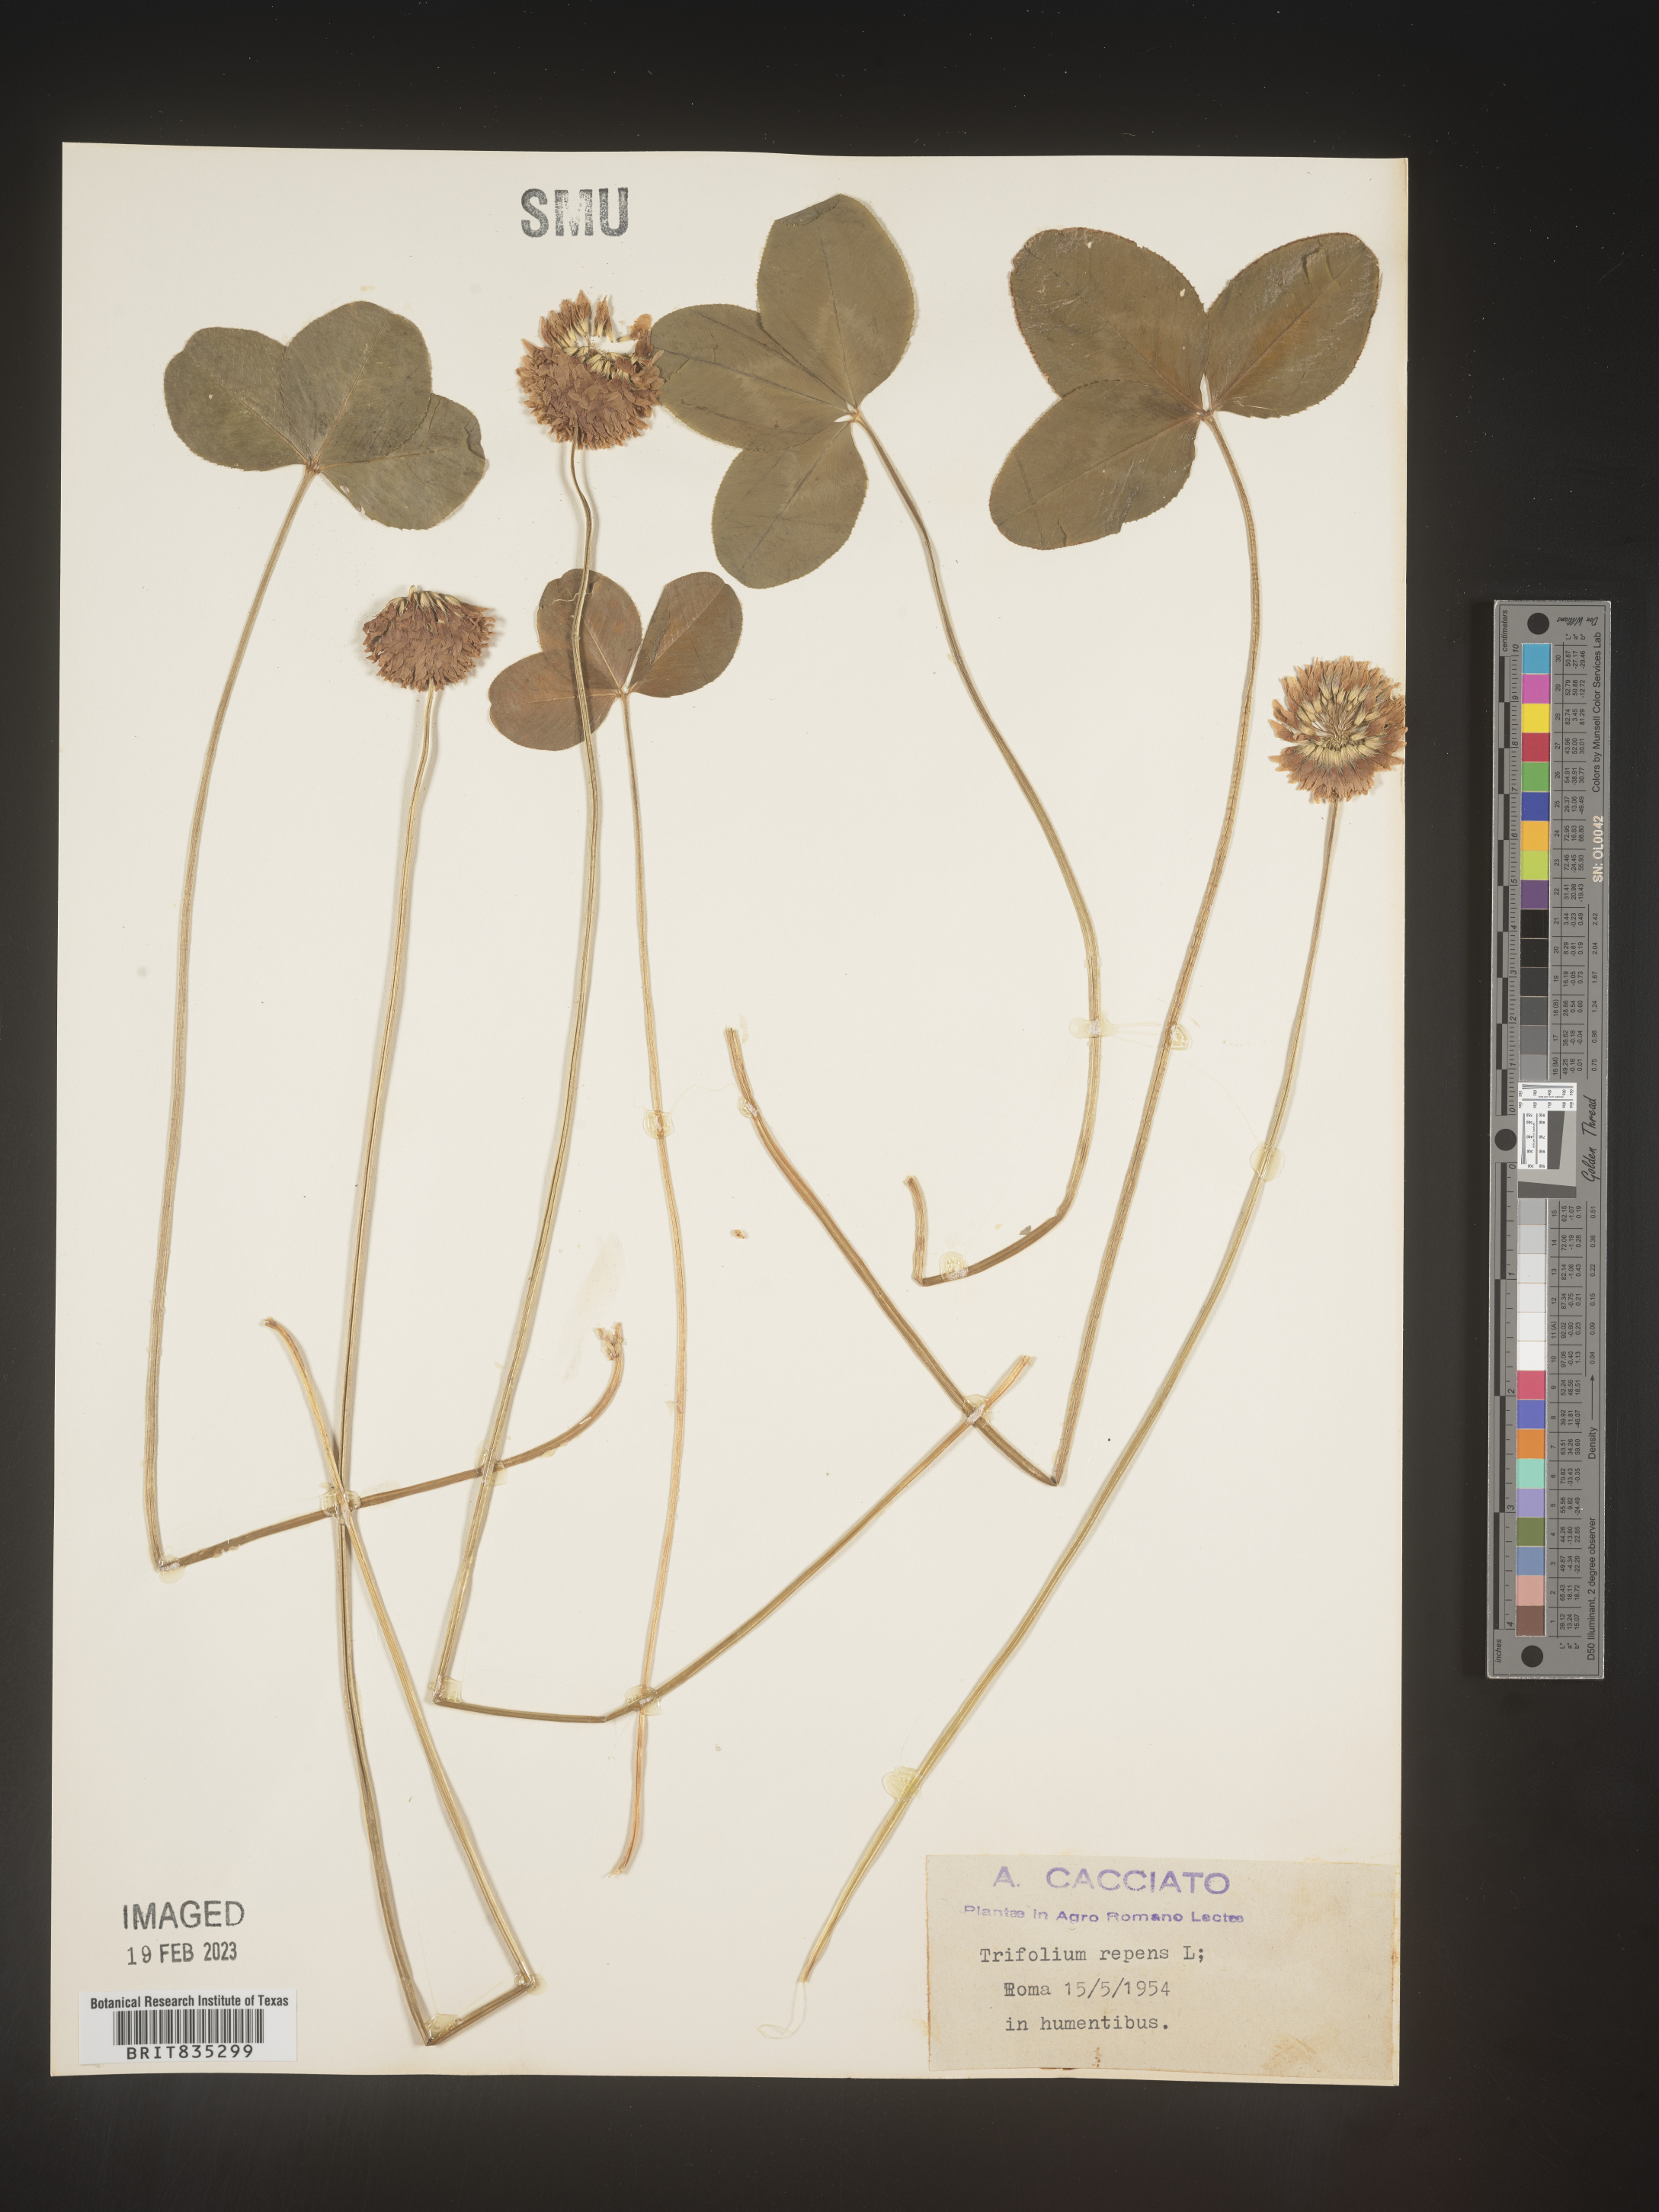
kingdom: Plantae
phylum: Tracheophyta
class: Magnoliopsida
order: Fabales
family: Fabaceae
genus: Trifolium
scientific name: Trifolium
